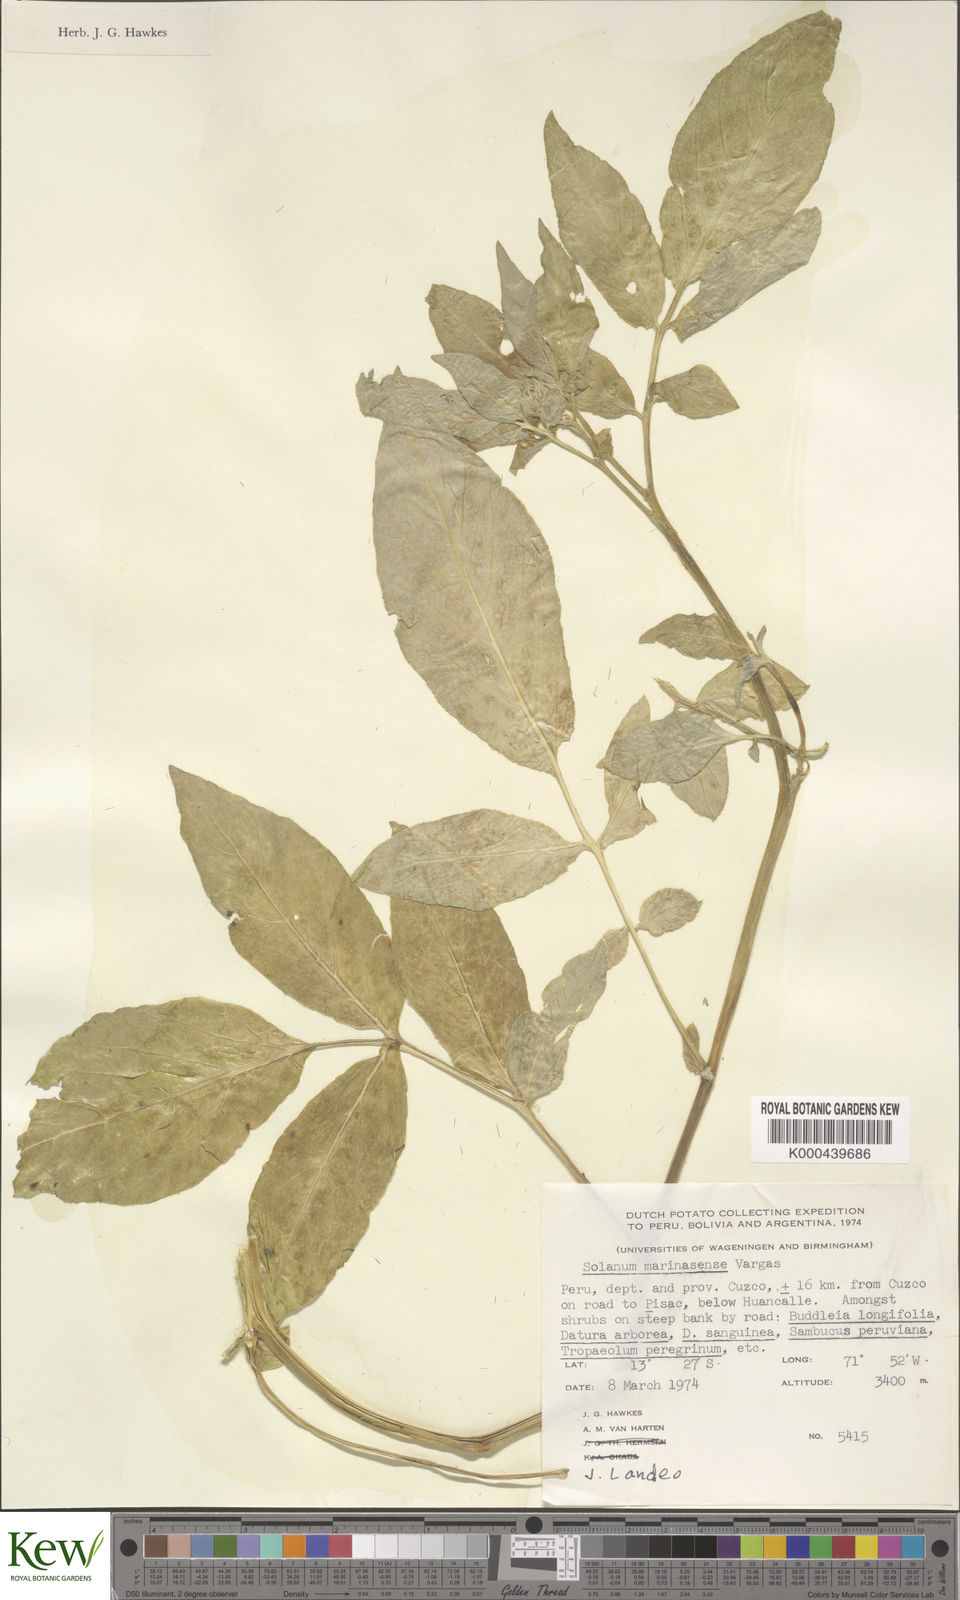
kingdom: Plantae
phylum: Tracheophyta
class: Magnoliopsida
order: Solanales
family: Solanaceae
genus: Solanum
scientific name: Solanum candolleanum
